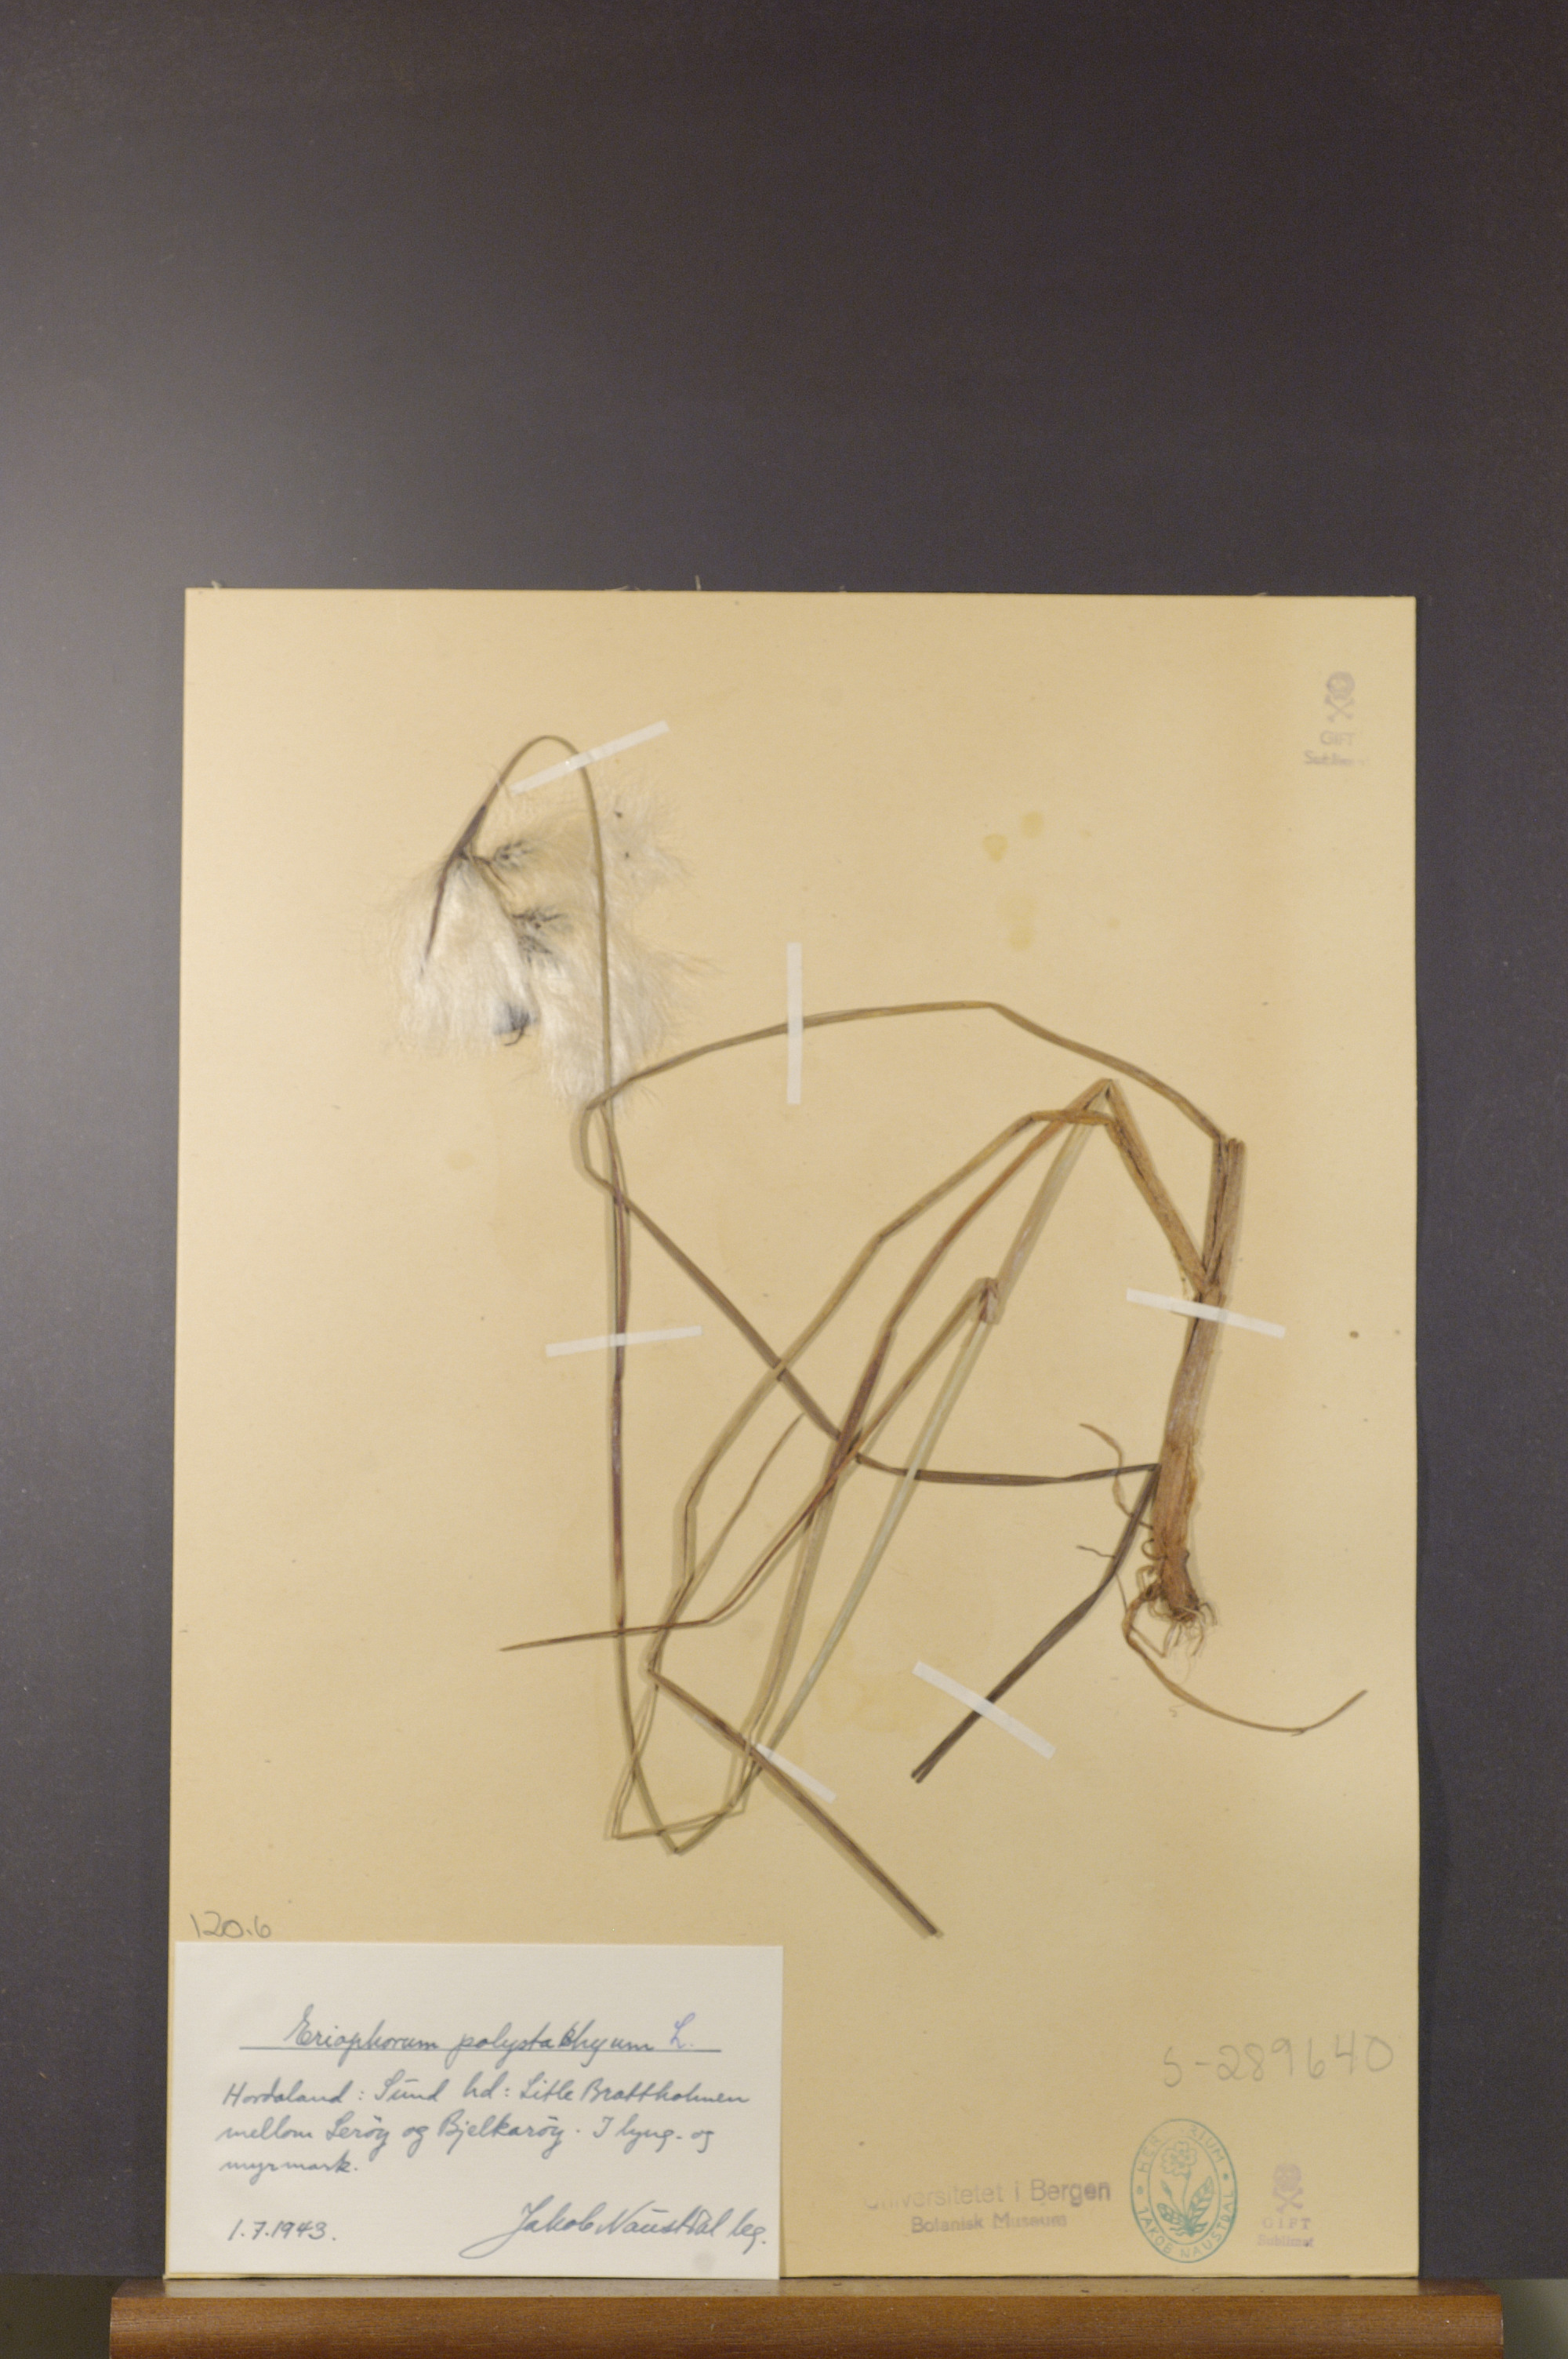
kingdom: Plantae
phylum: Tracheophyta
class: Liliopsida
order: Poales
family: Cyperaceae
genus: Eriophorum
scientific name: Eriophorum angustifolium
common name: Common cottongrass
